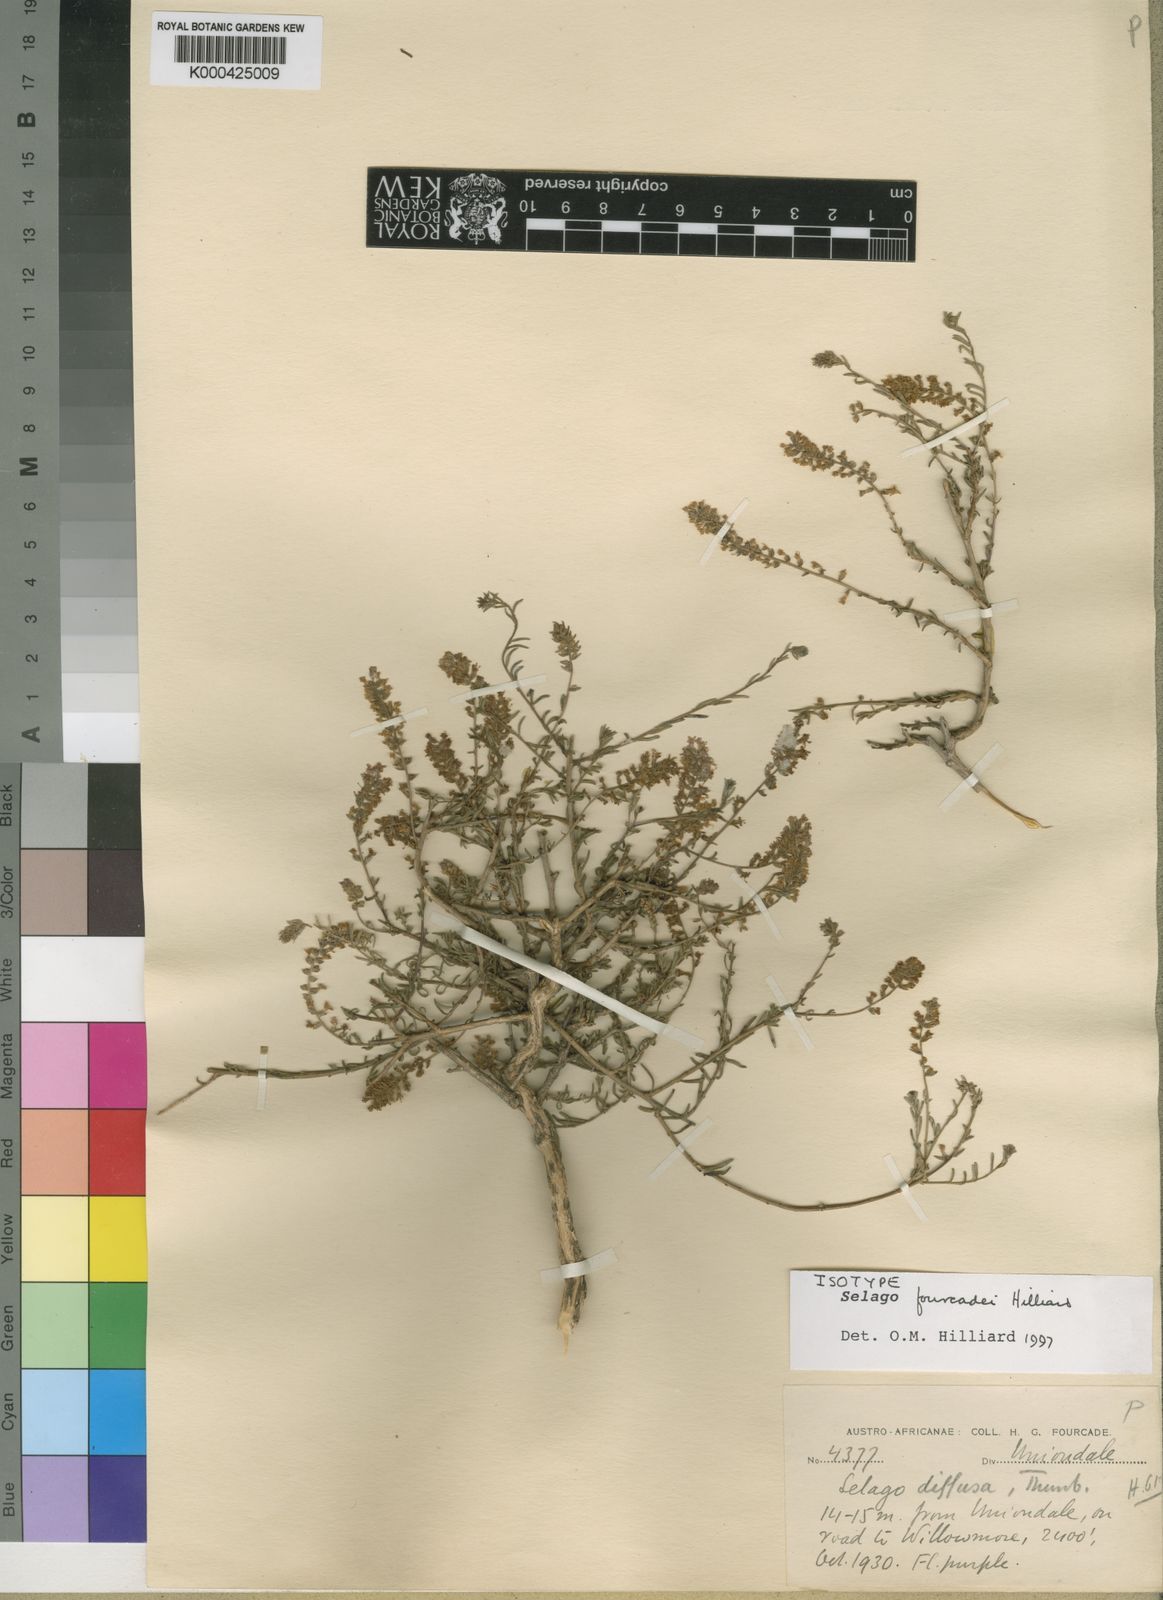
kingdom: Plantae
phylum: Tracheophyta
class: Magnoliopsida
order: Lamiales
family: Scrophulariaceae
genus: Selago
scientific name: Selago fourcadei
